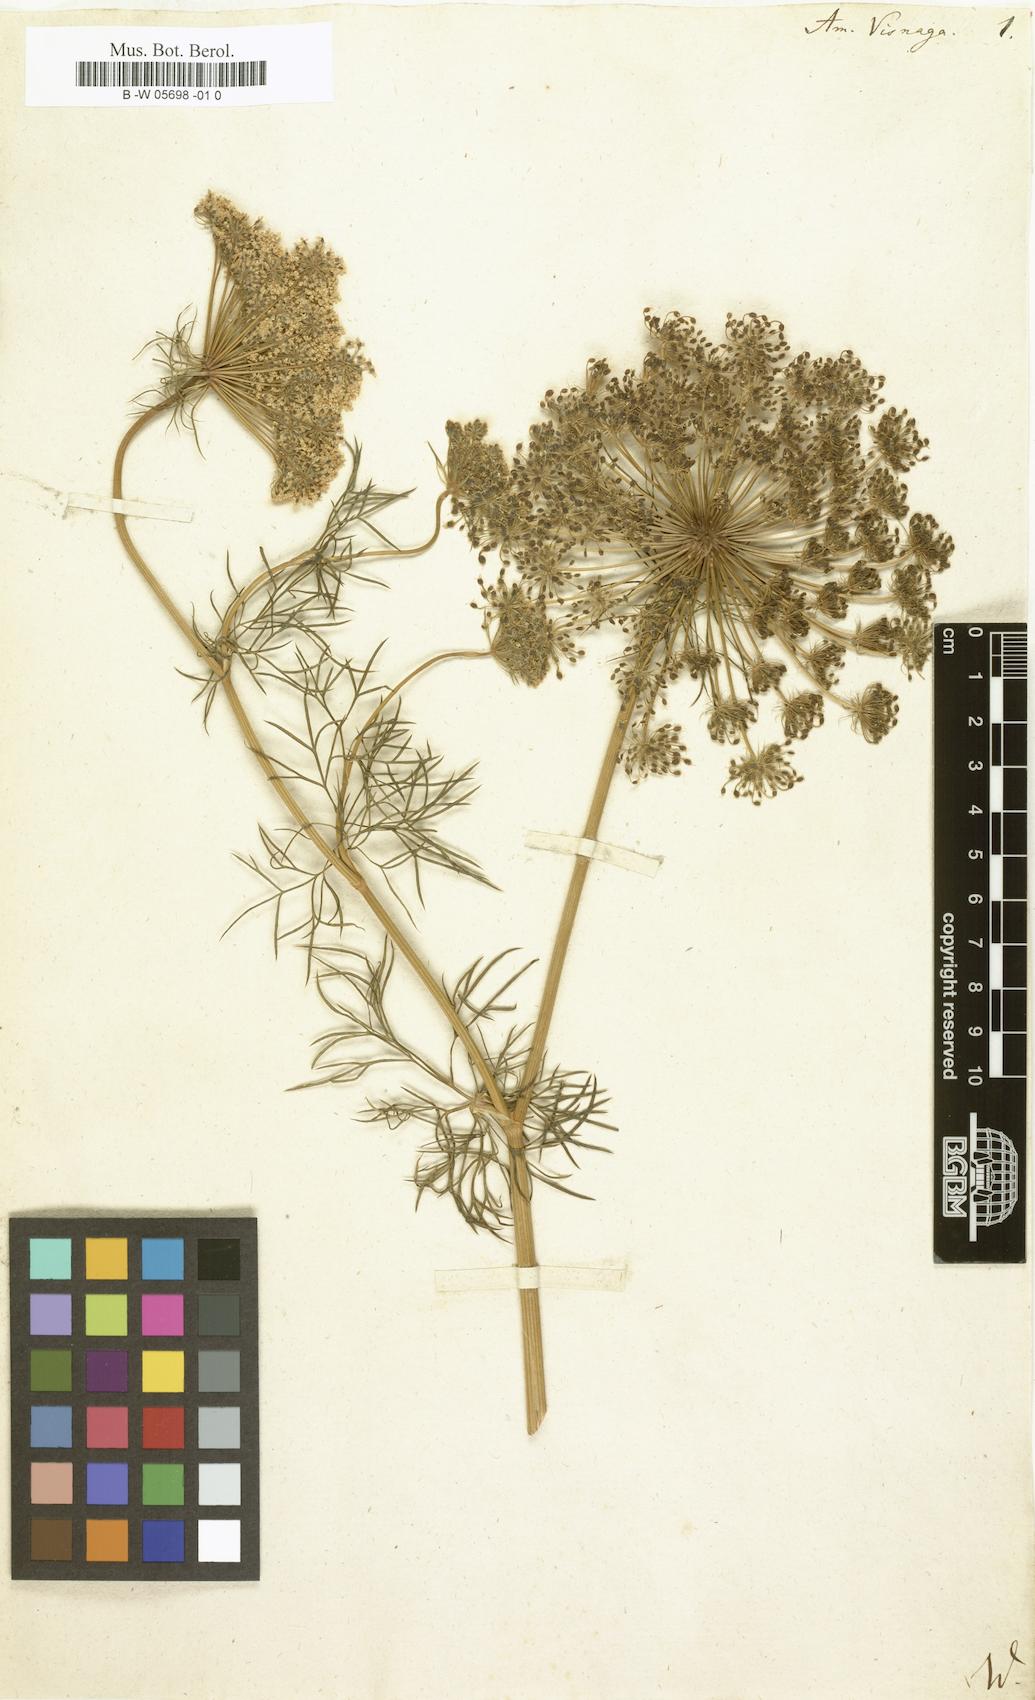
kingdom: Plantae
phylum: Tracheophyta
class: Magnoliopsida
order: Apiales
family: Apiaceae
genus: Visnaga
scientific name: Visnaga daucoides
